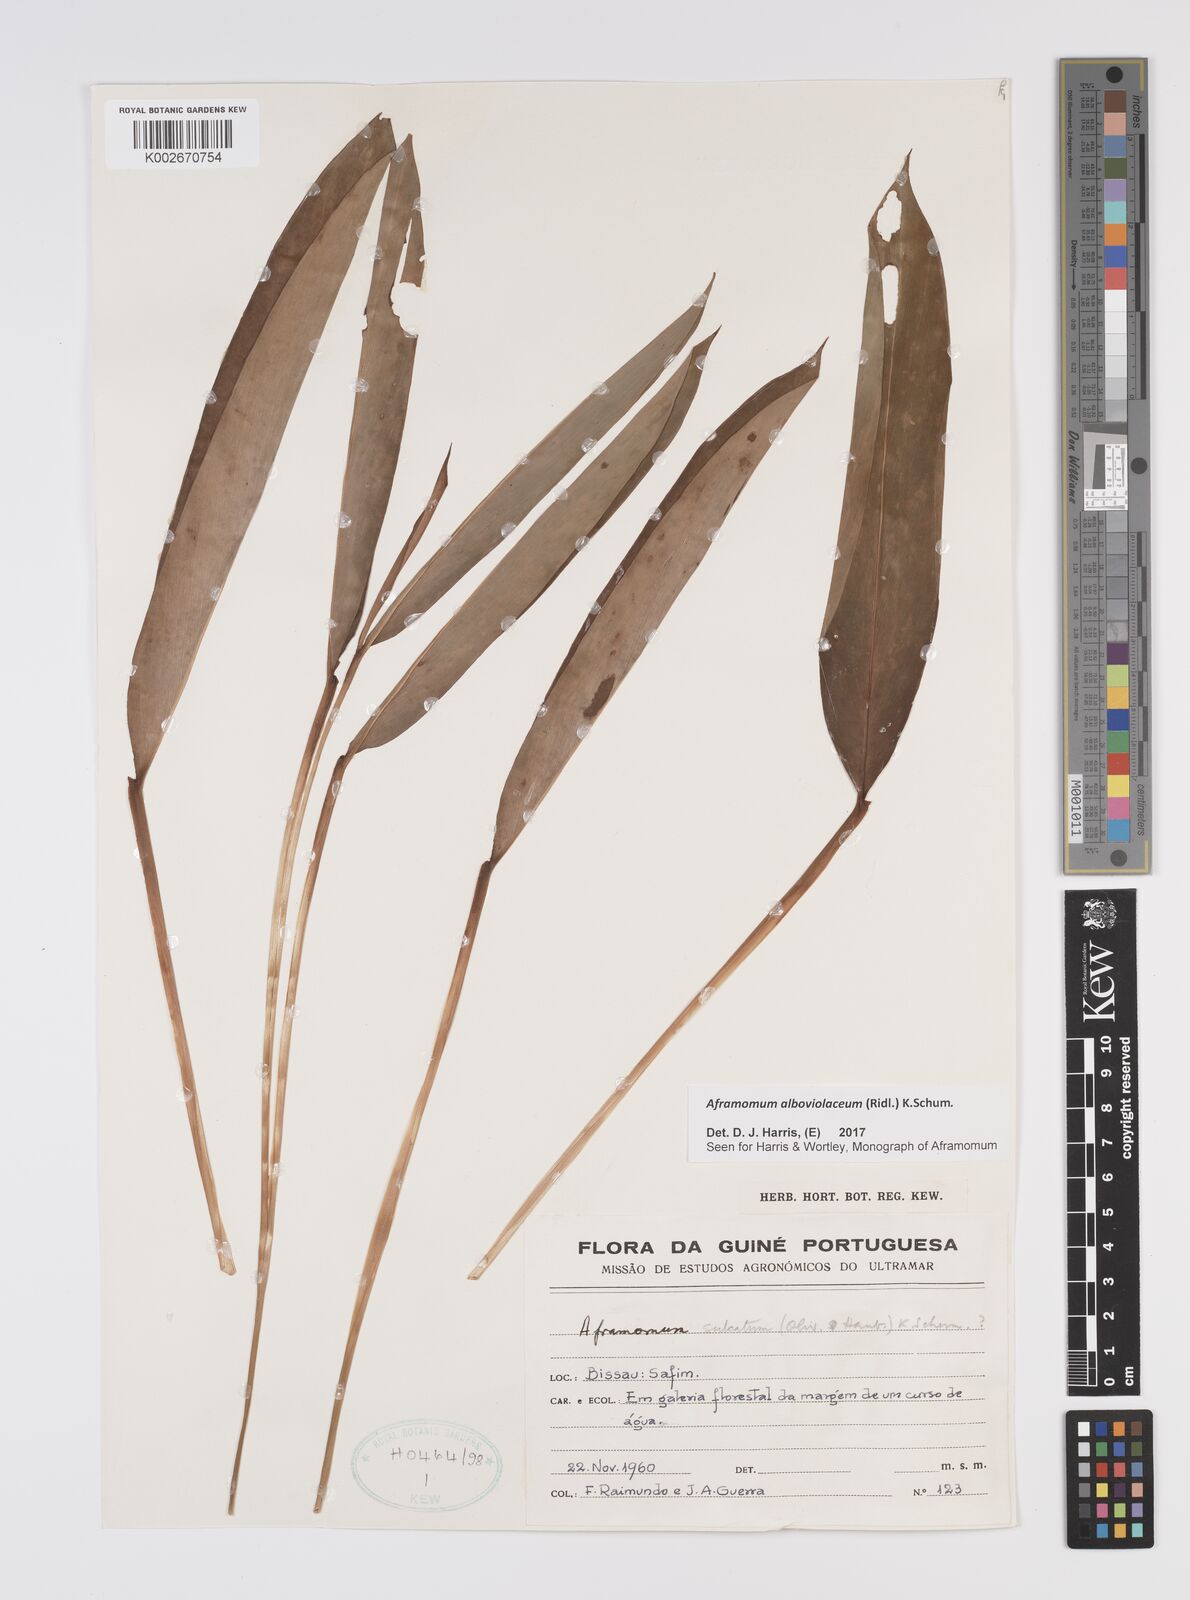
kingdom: Plantae
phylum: Tracheophyta
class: Liliopsida
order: Zingiberales
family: Zingiberaceae
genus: Aframomum
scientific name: Aframomum alboviolaceum
